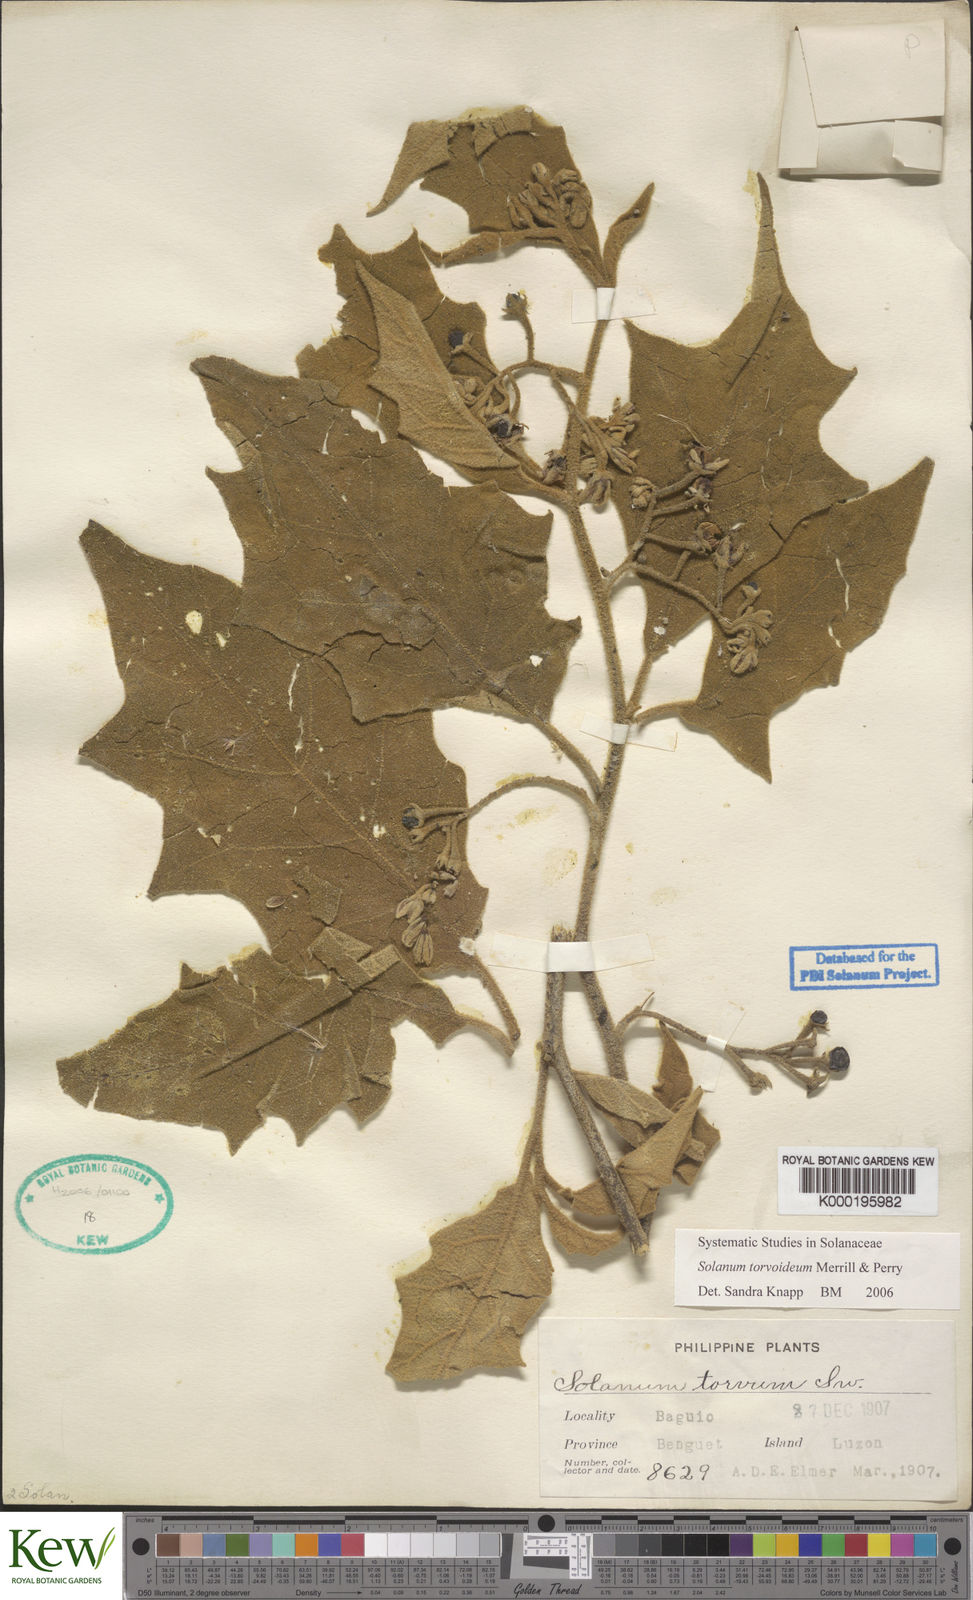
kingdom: Plantae
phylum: Tracheophyta
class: Magnoliopsida
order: Solanales
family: Solanaceae
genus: Solanum
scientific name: Solanum torvoideum
